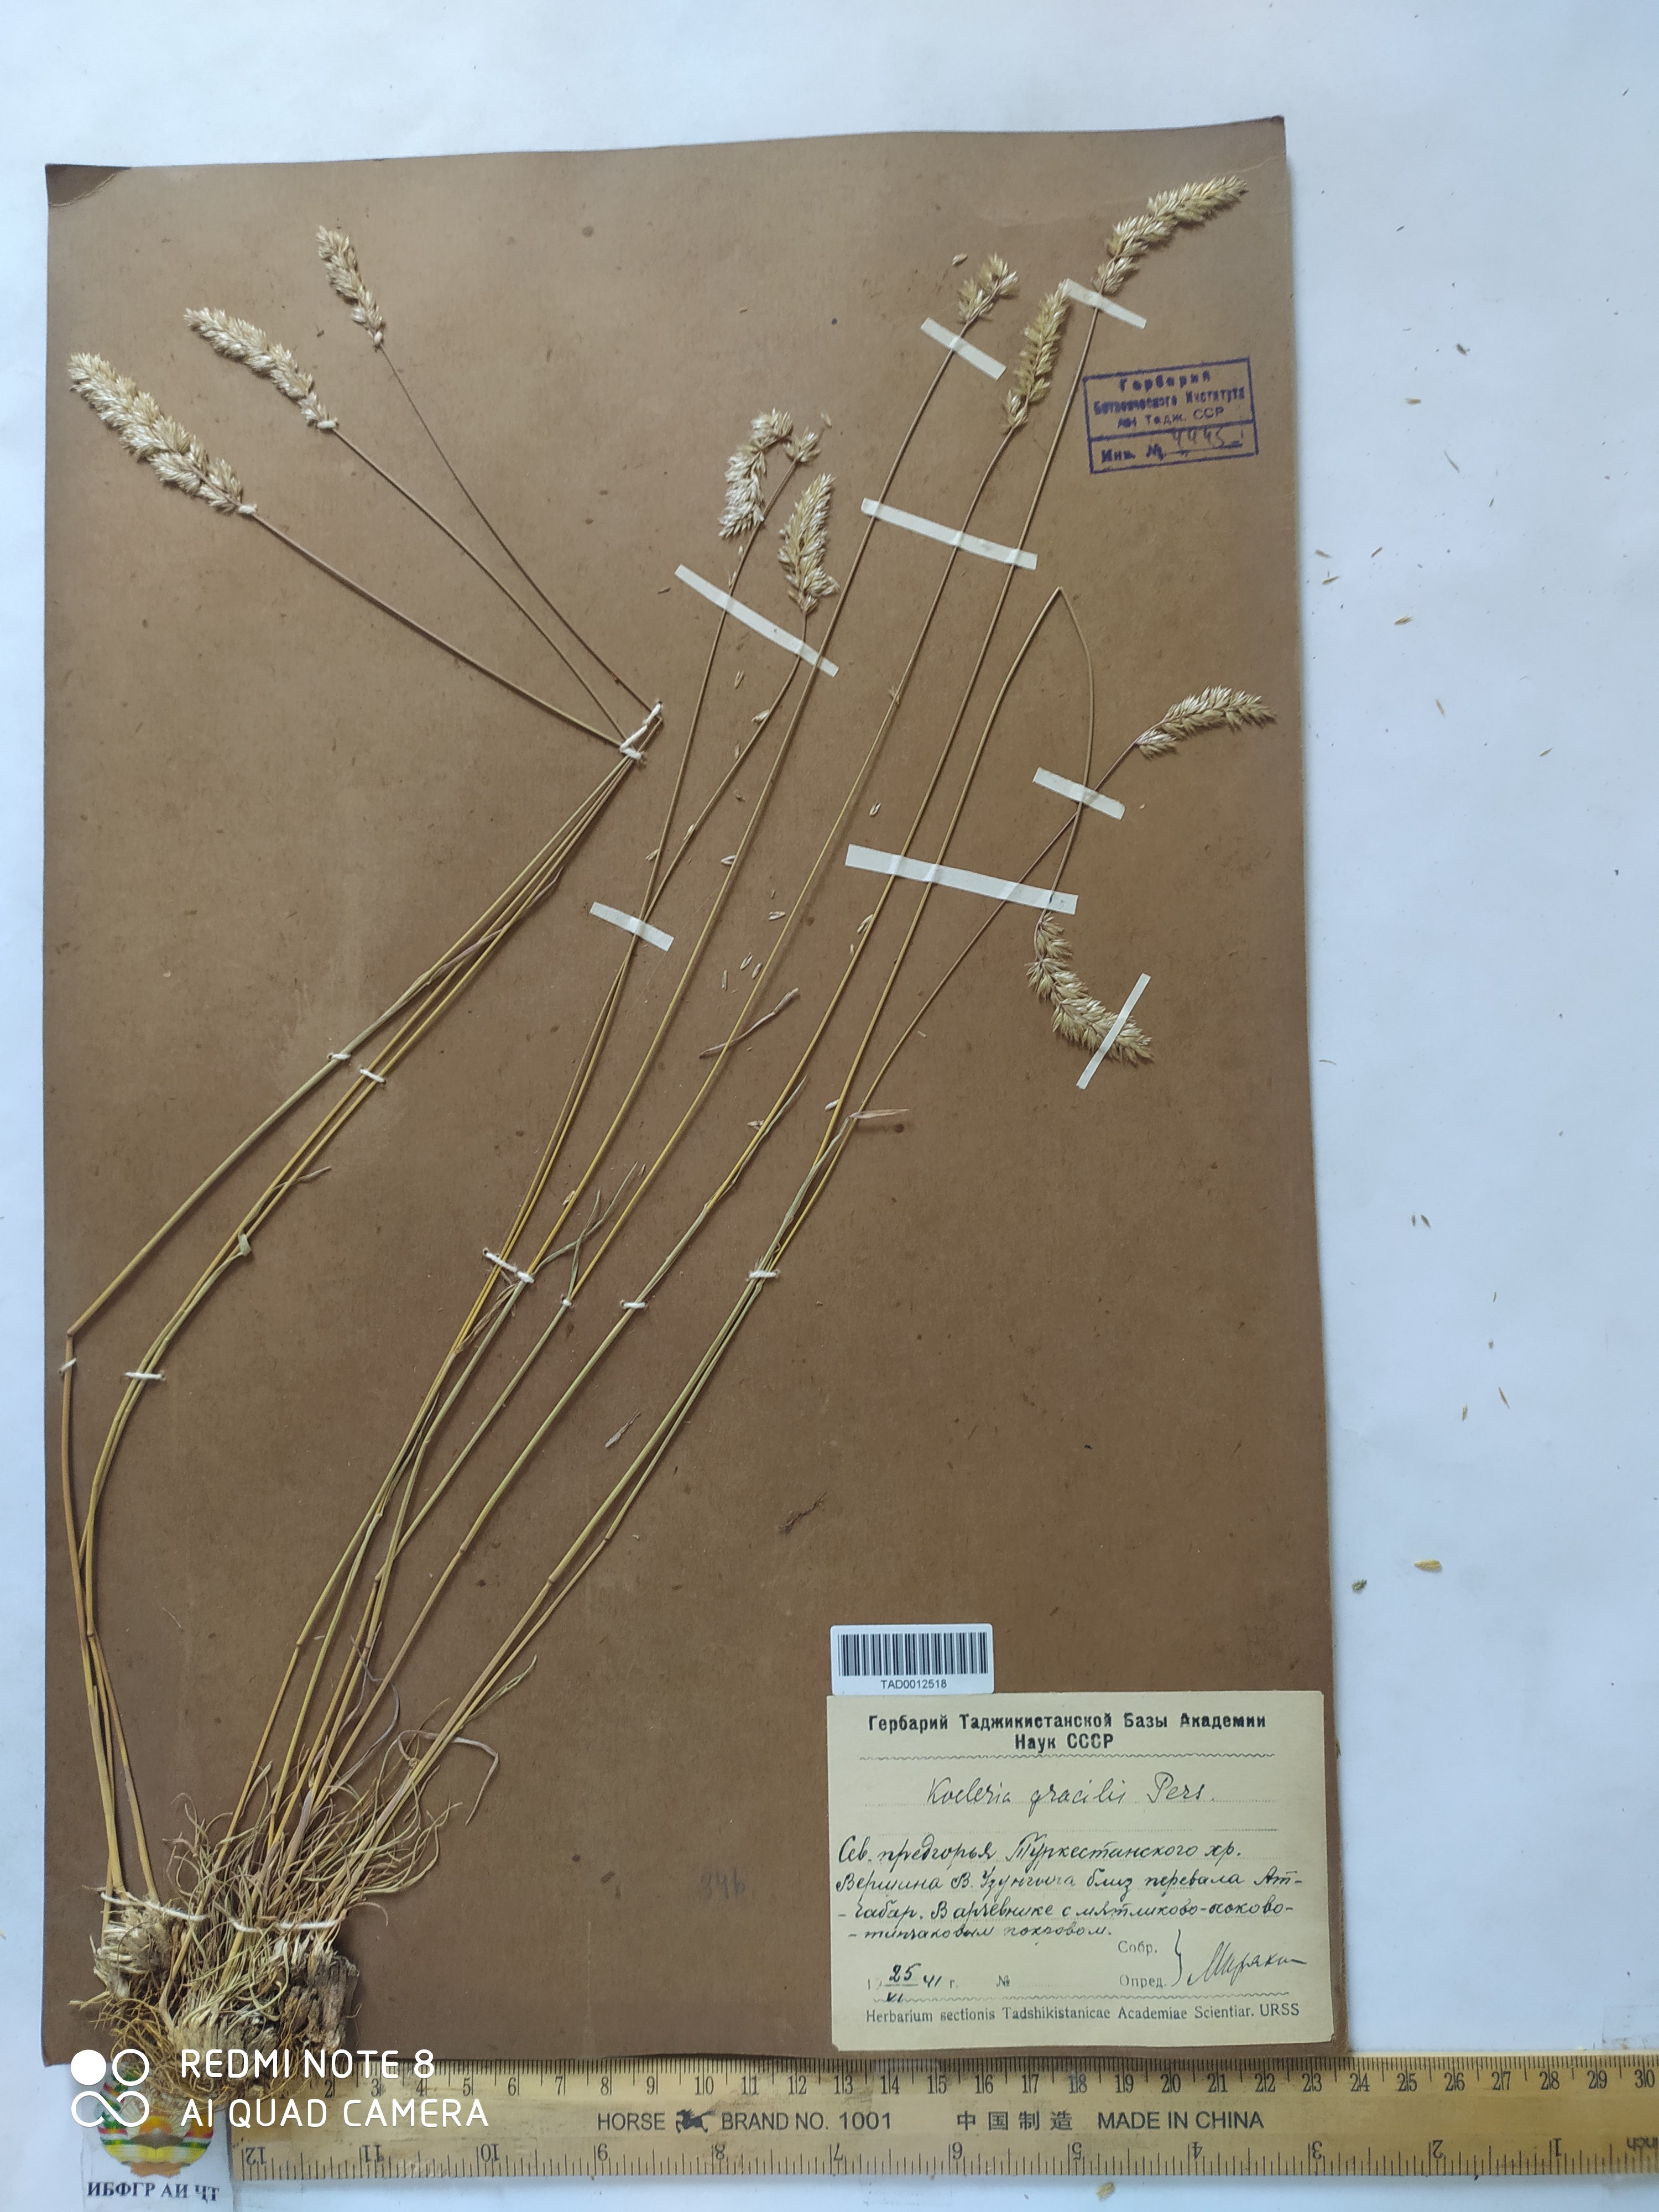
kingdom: Plantae
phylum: Tracheophyta
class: Liliopsida
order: Poales
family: Poaceae
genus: Koeleria
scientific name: Koeleria macrantha
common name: Crested hair-grass
